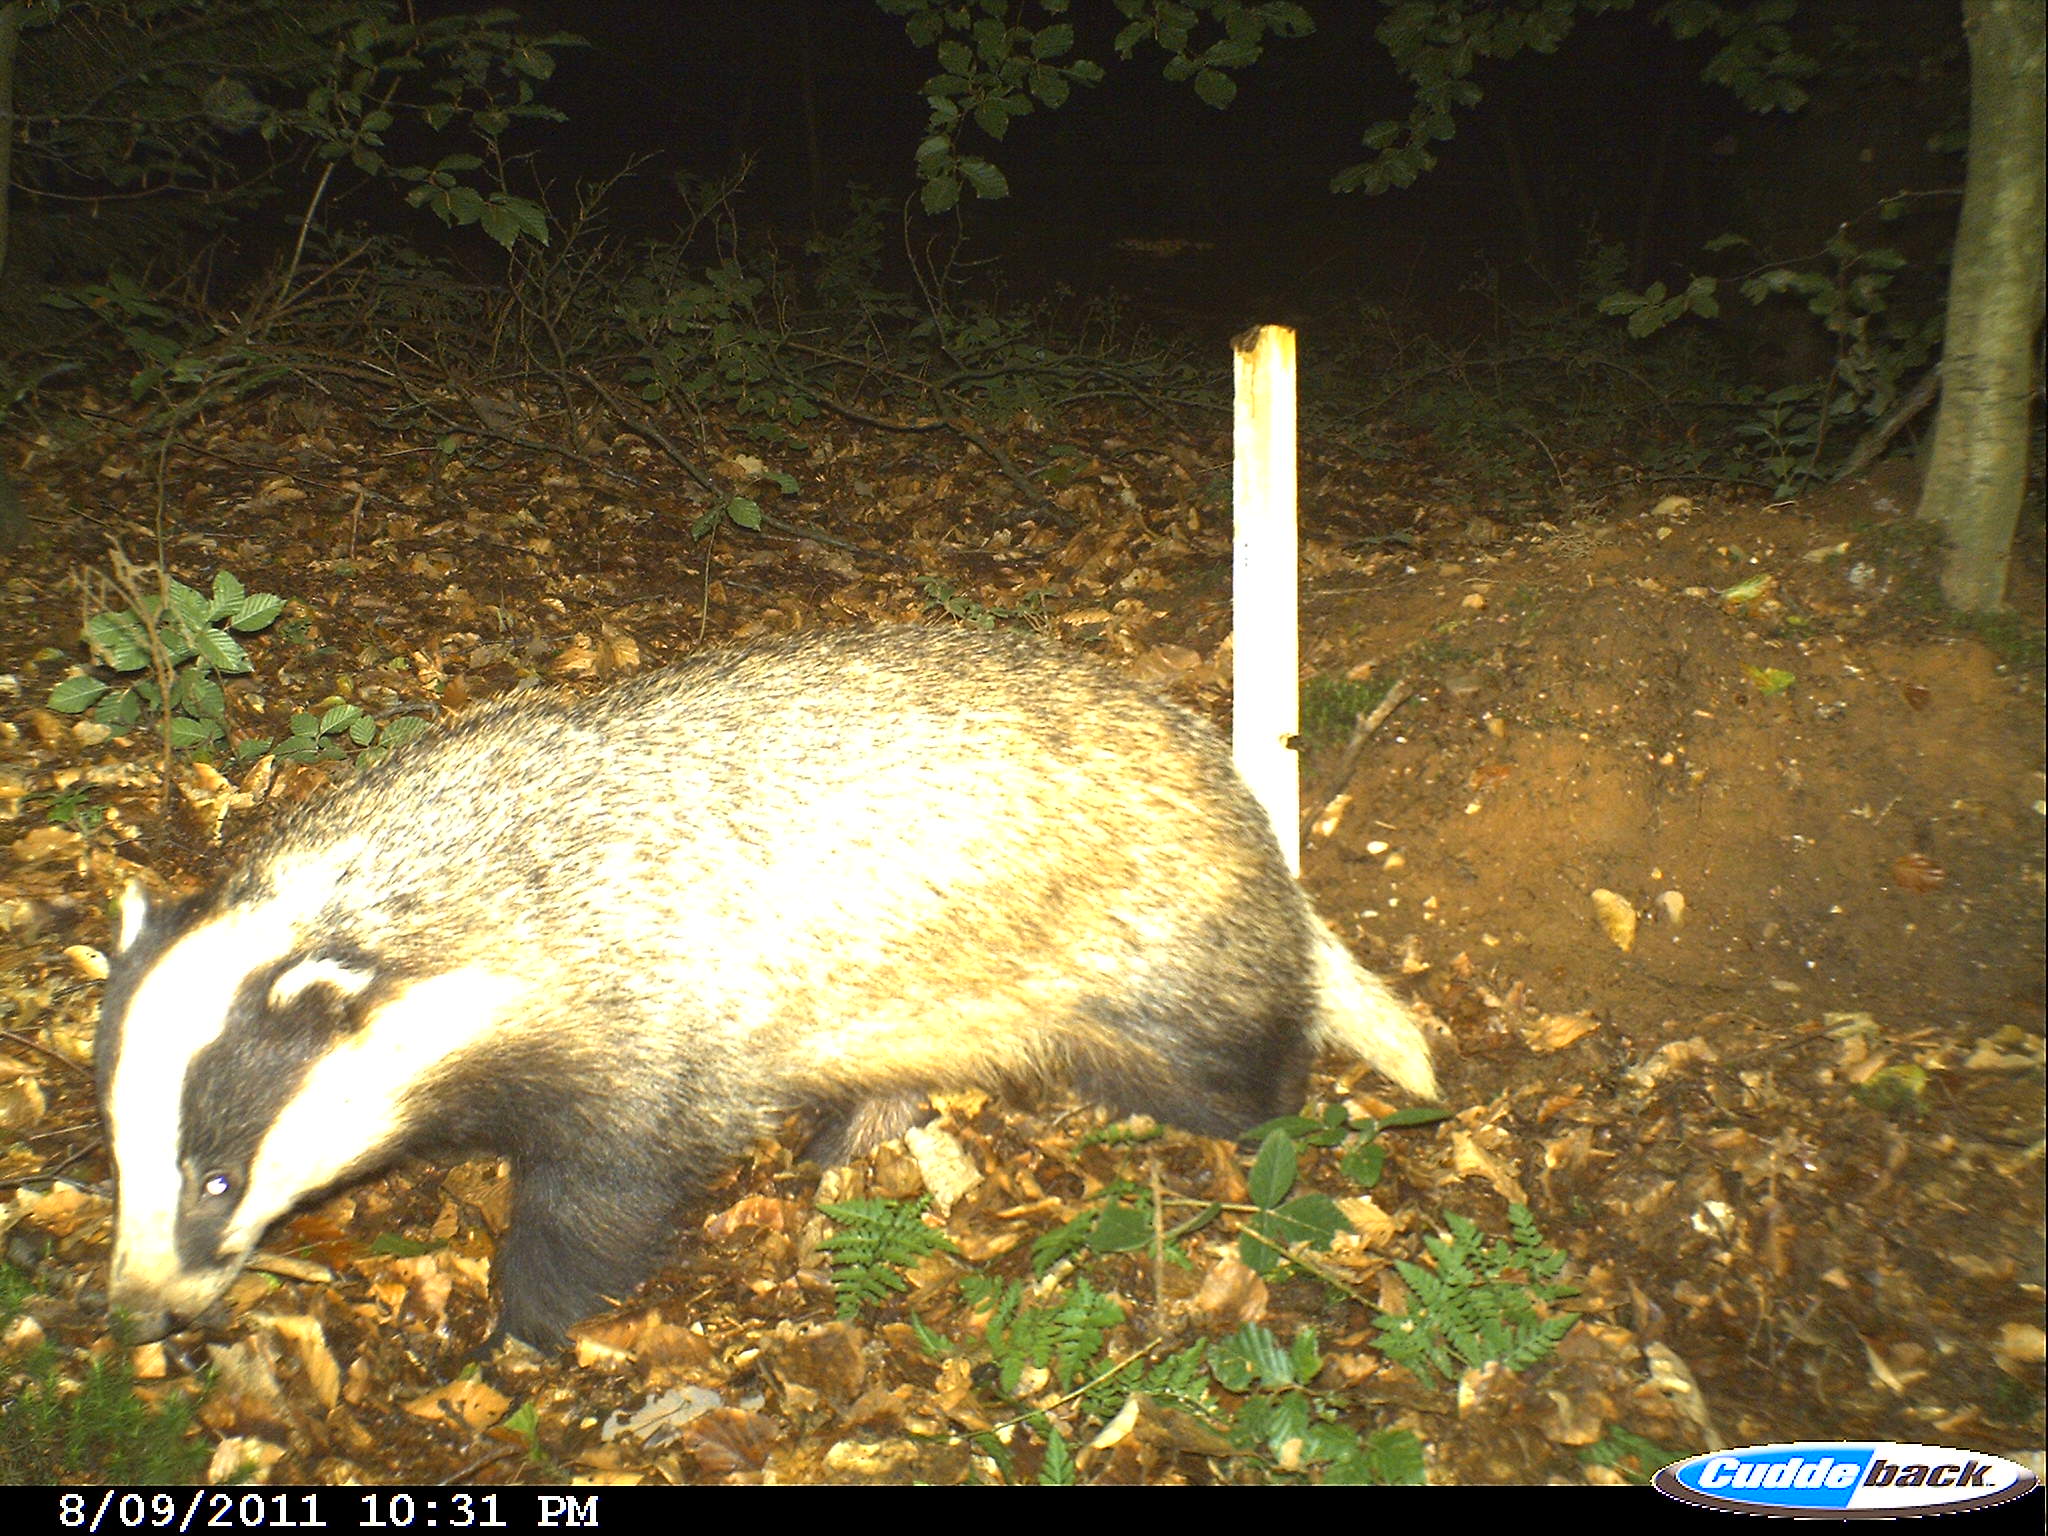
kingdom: Animalia
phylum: Chordata
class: Mammalia
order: Carnivora
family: Mustelidae
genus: Meles
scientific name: Meles meles
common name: Eurasian badger
